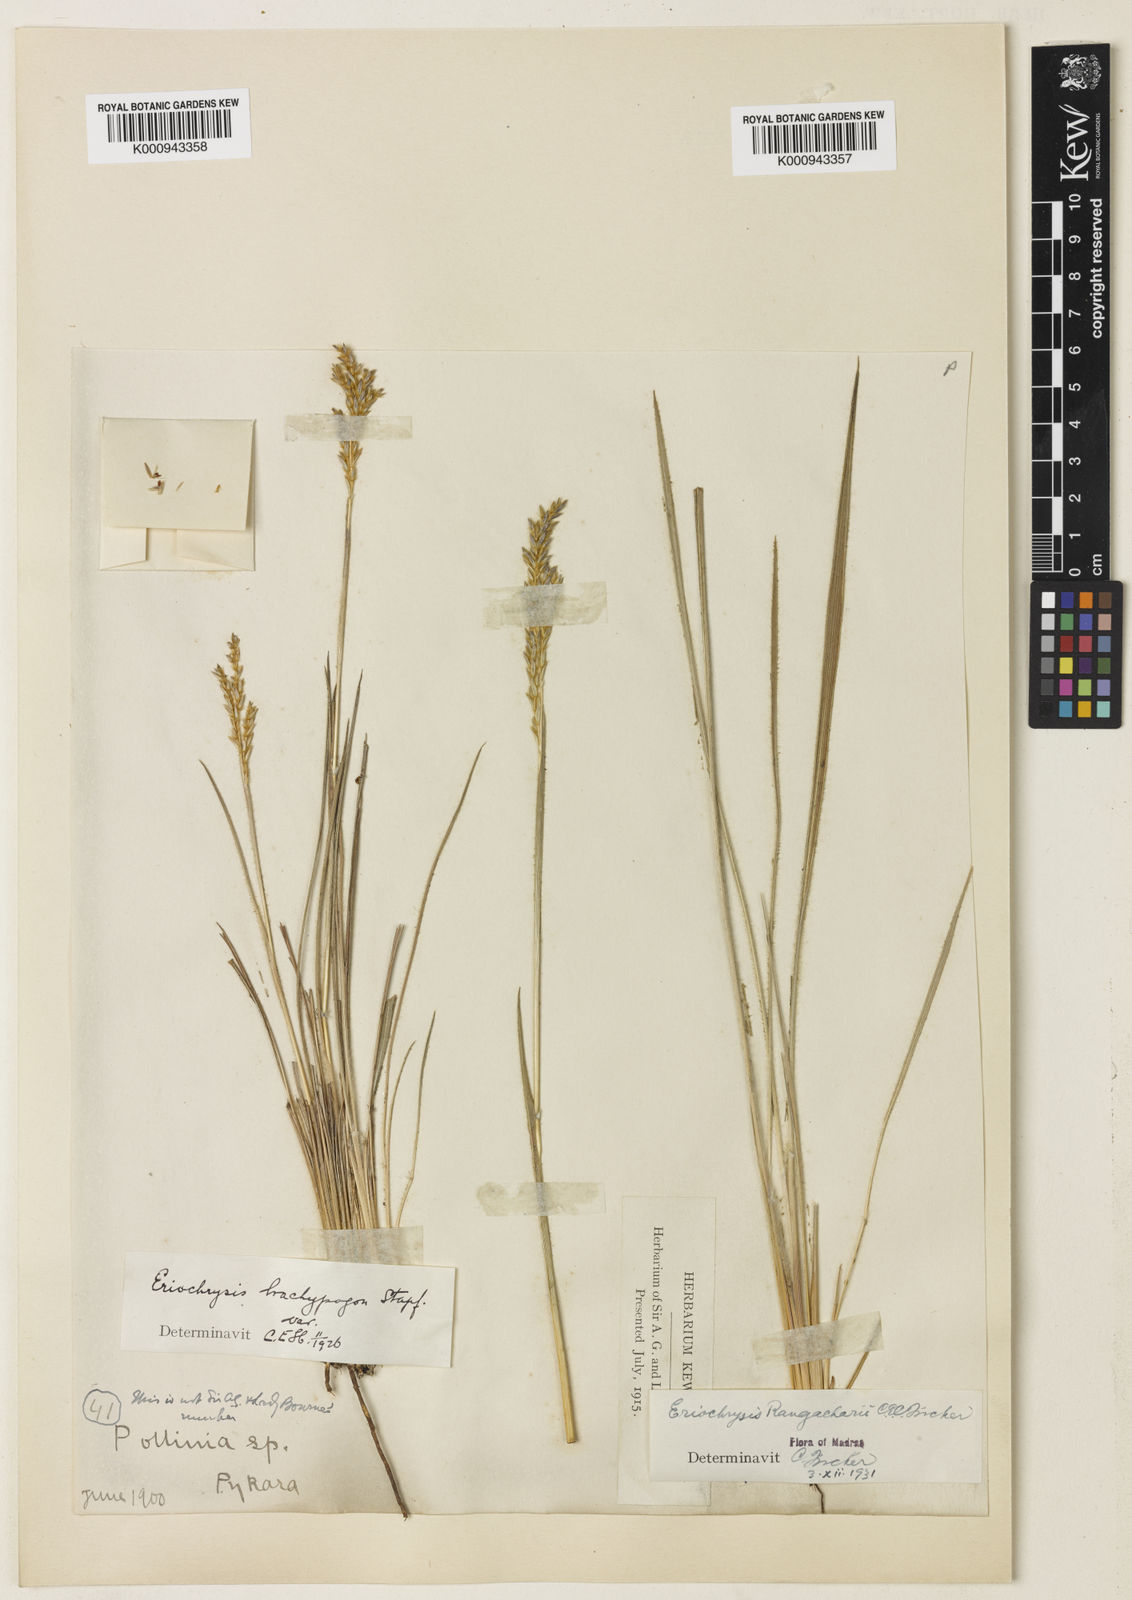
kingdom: Plantae
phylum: Tracheophyta
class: Liliopsida
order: Poales
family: Poaceae
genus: Eriochrysis
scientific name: Eriochrysis rangacharii
